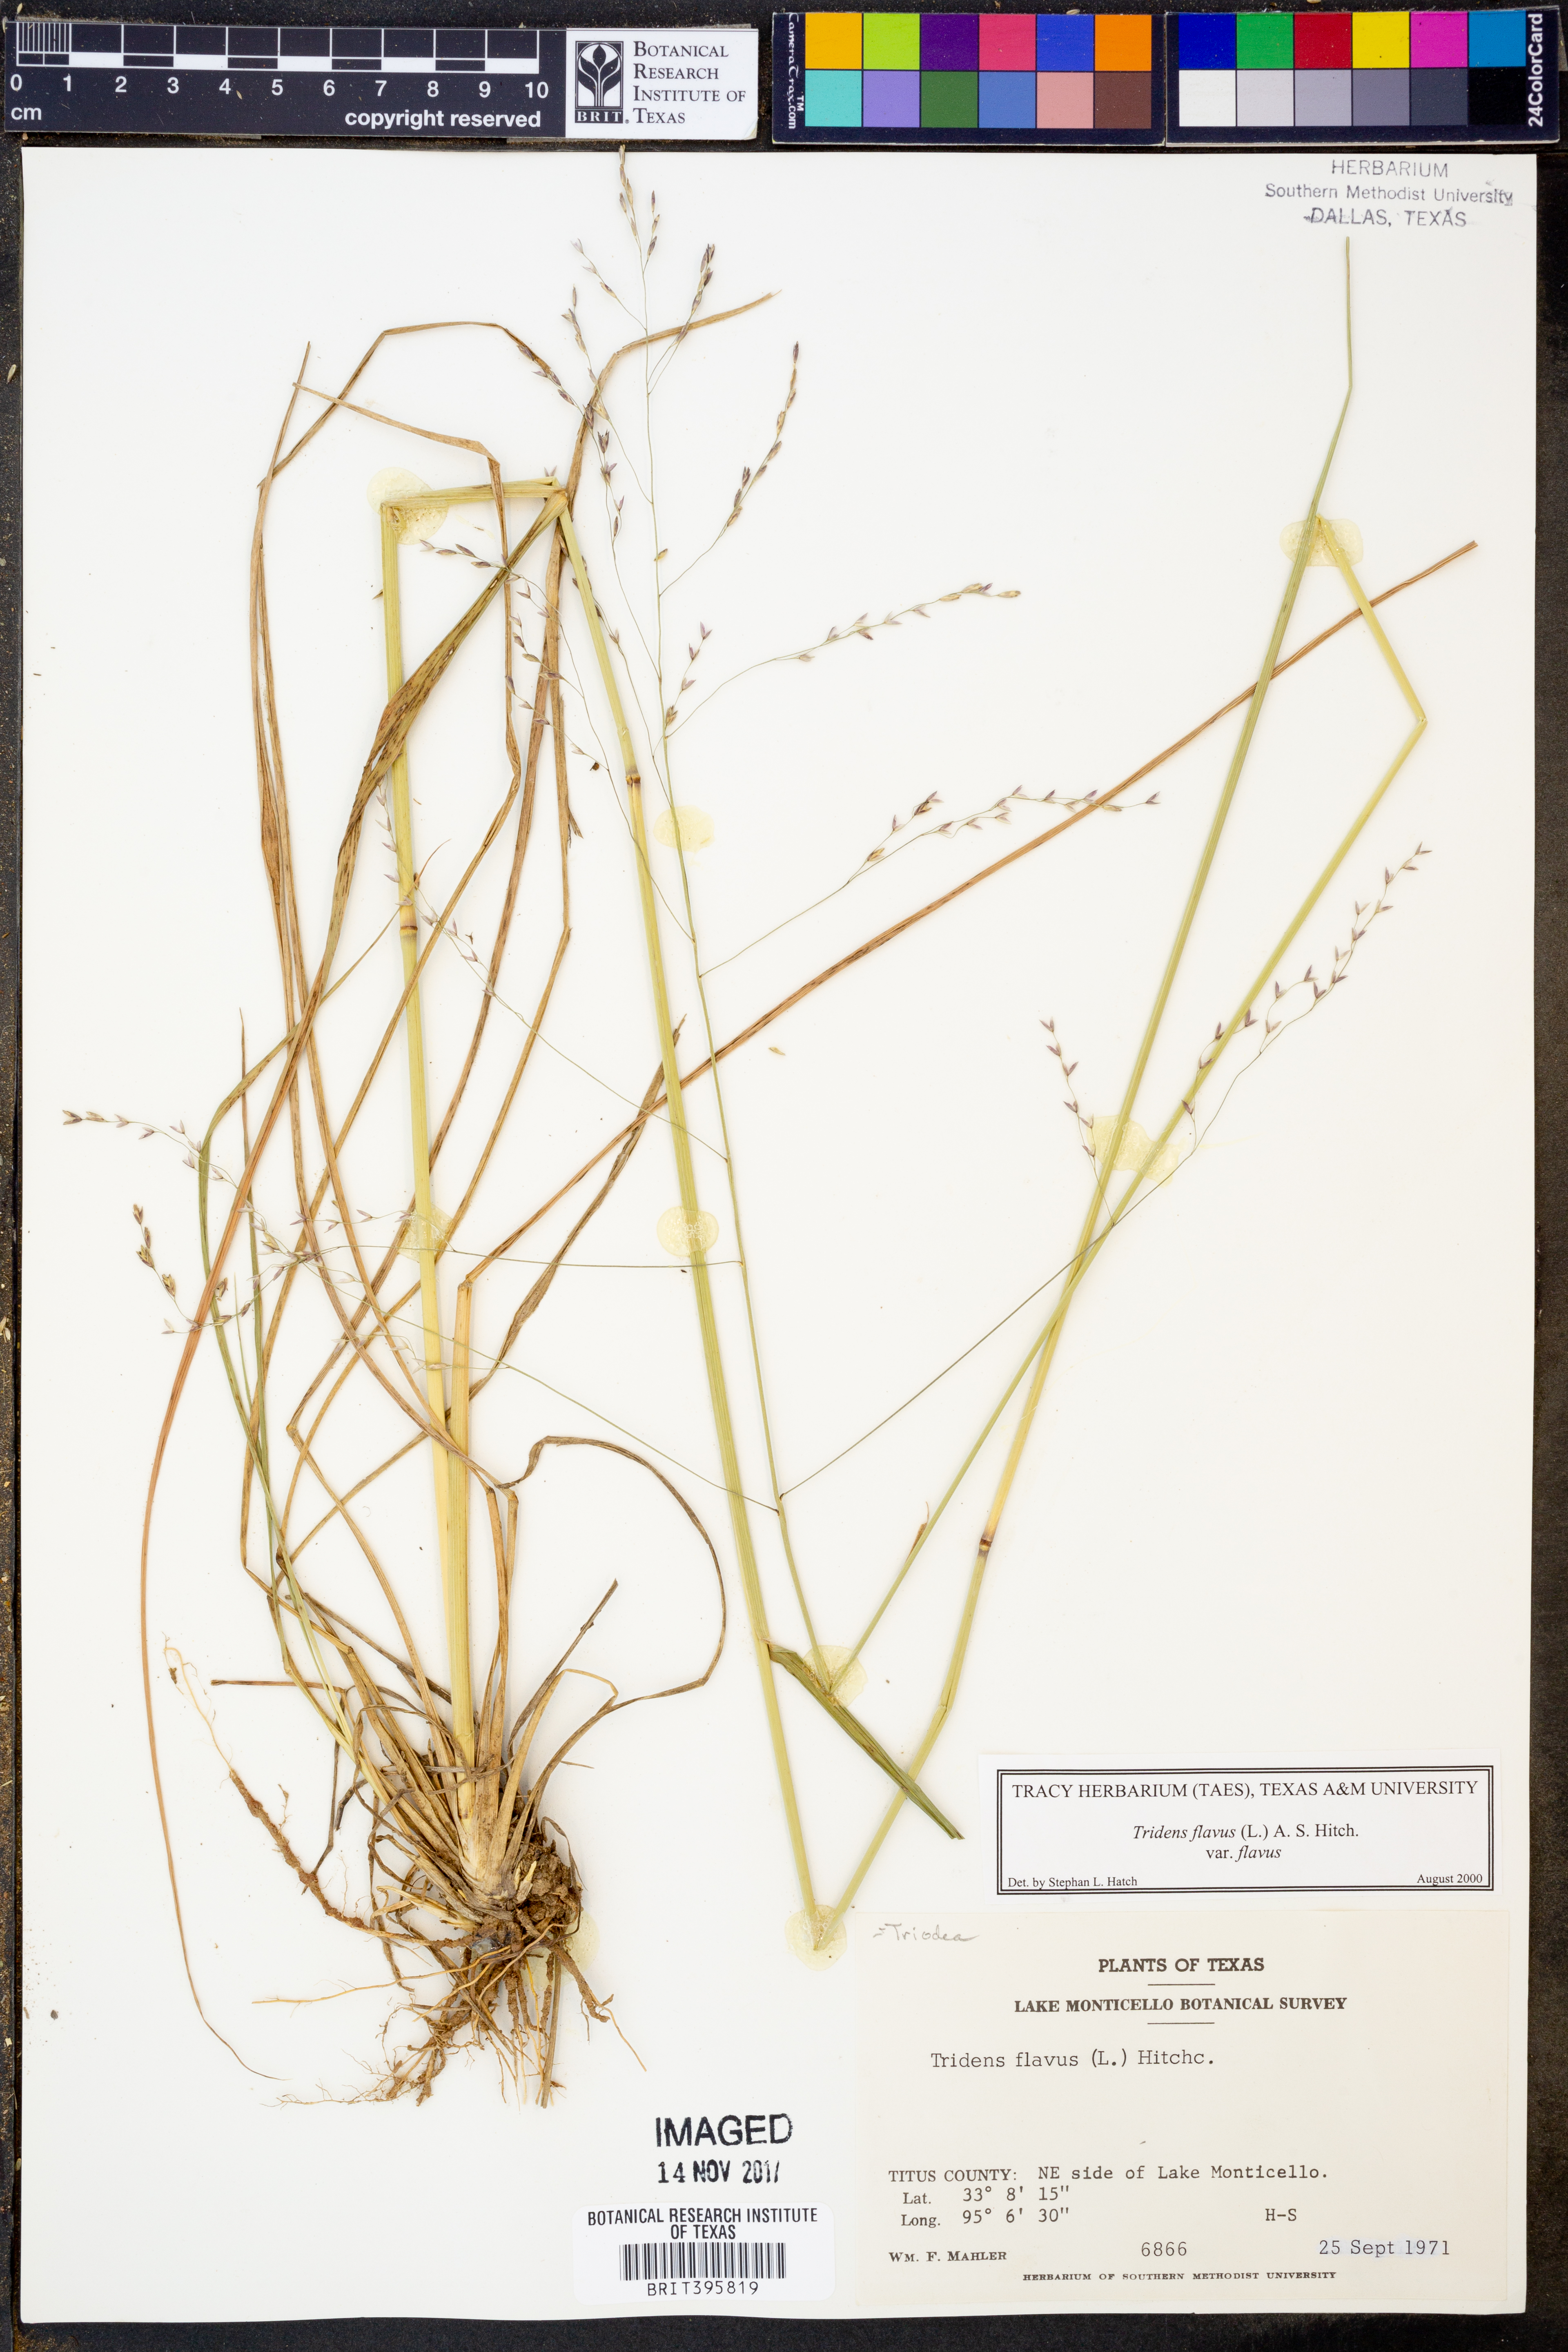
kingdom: Plantae
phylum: Tracheophyta
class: Liliopsida
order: Poales
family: Poaceae
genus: Tridens
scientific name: Tridens flavus
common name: Purpletop
